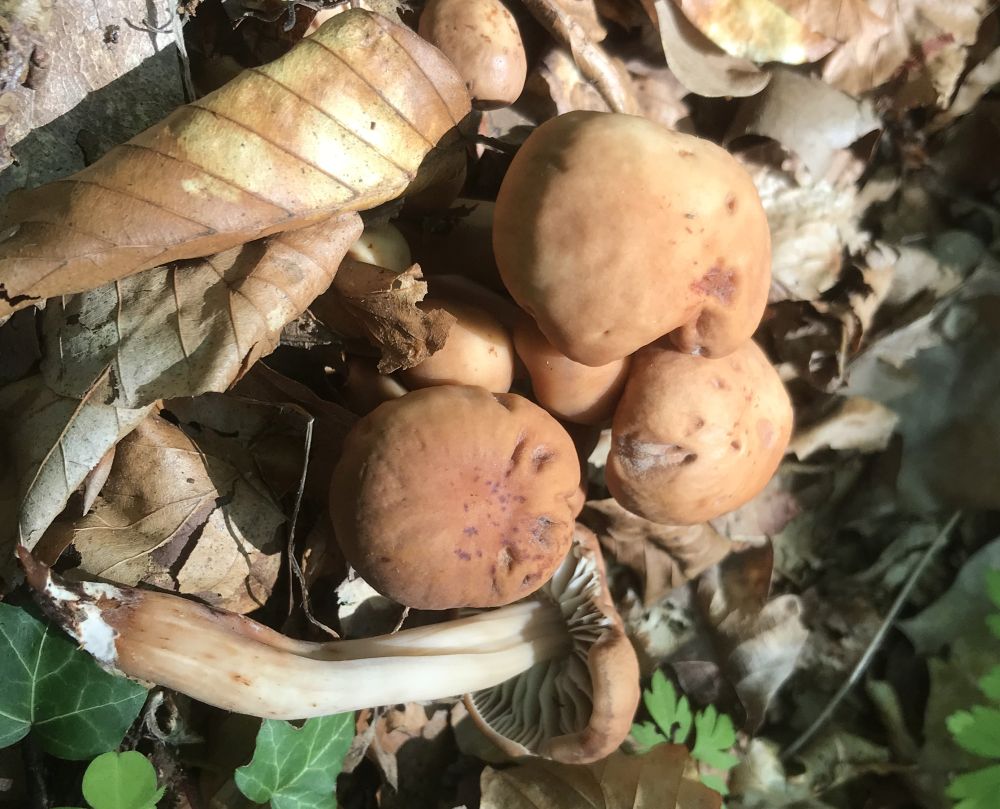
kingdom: Fungi
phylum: Basidiomycota
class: Agaricomycetes
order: Agaricales
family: Omphalotaceae
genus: Gymnopus
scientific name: Gymnopus fusipes
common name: tenstokket fladhat
